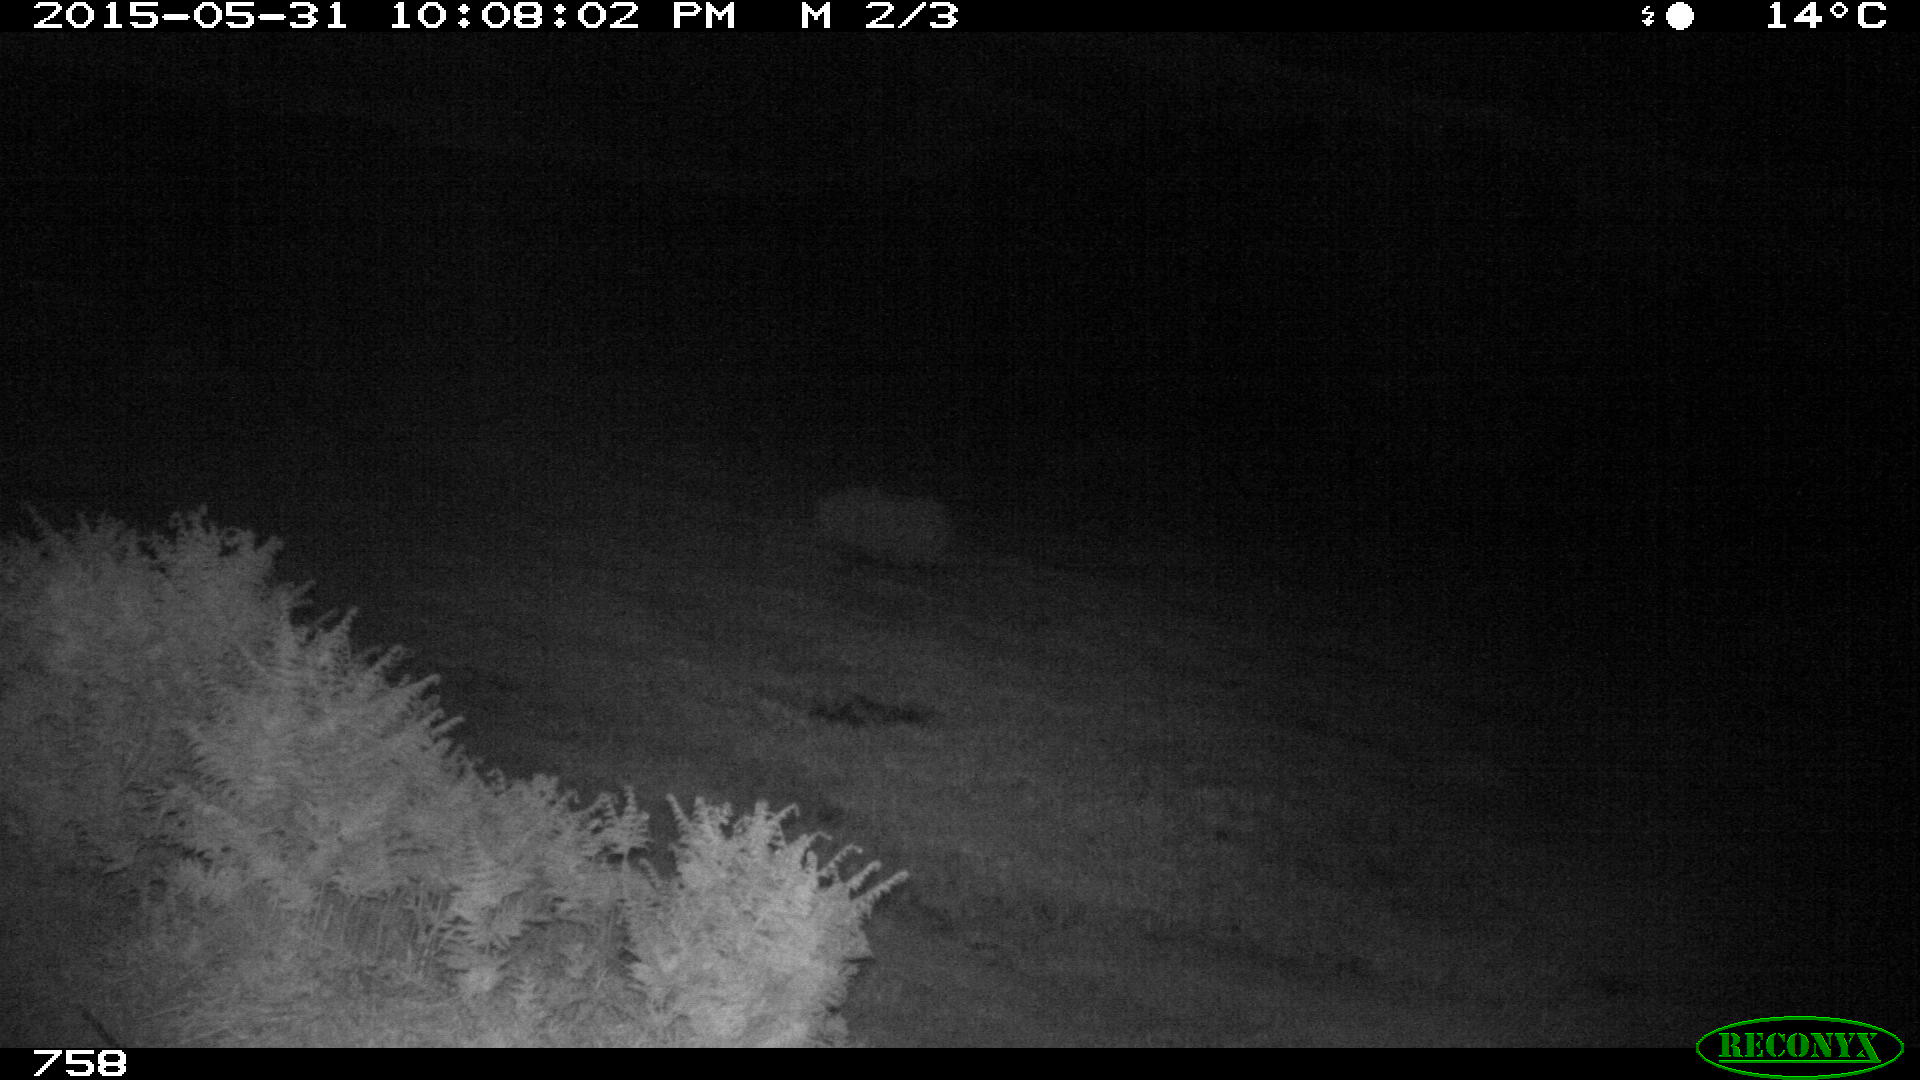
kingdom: Animalia
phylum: Chordata
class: Mammalia
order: Perissodactyla
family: Equidae
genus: Equus
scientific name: Equus caballus
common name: Horse
